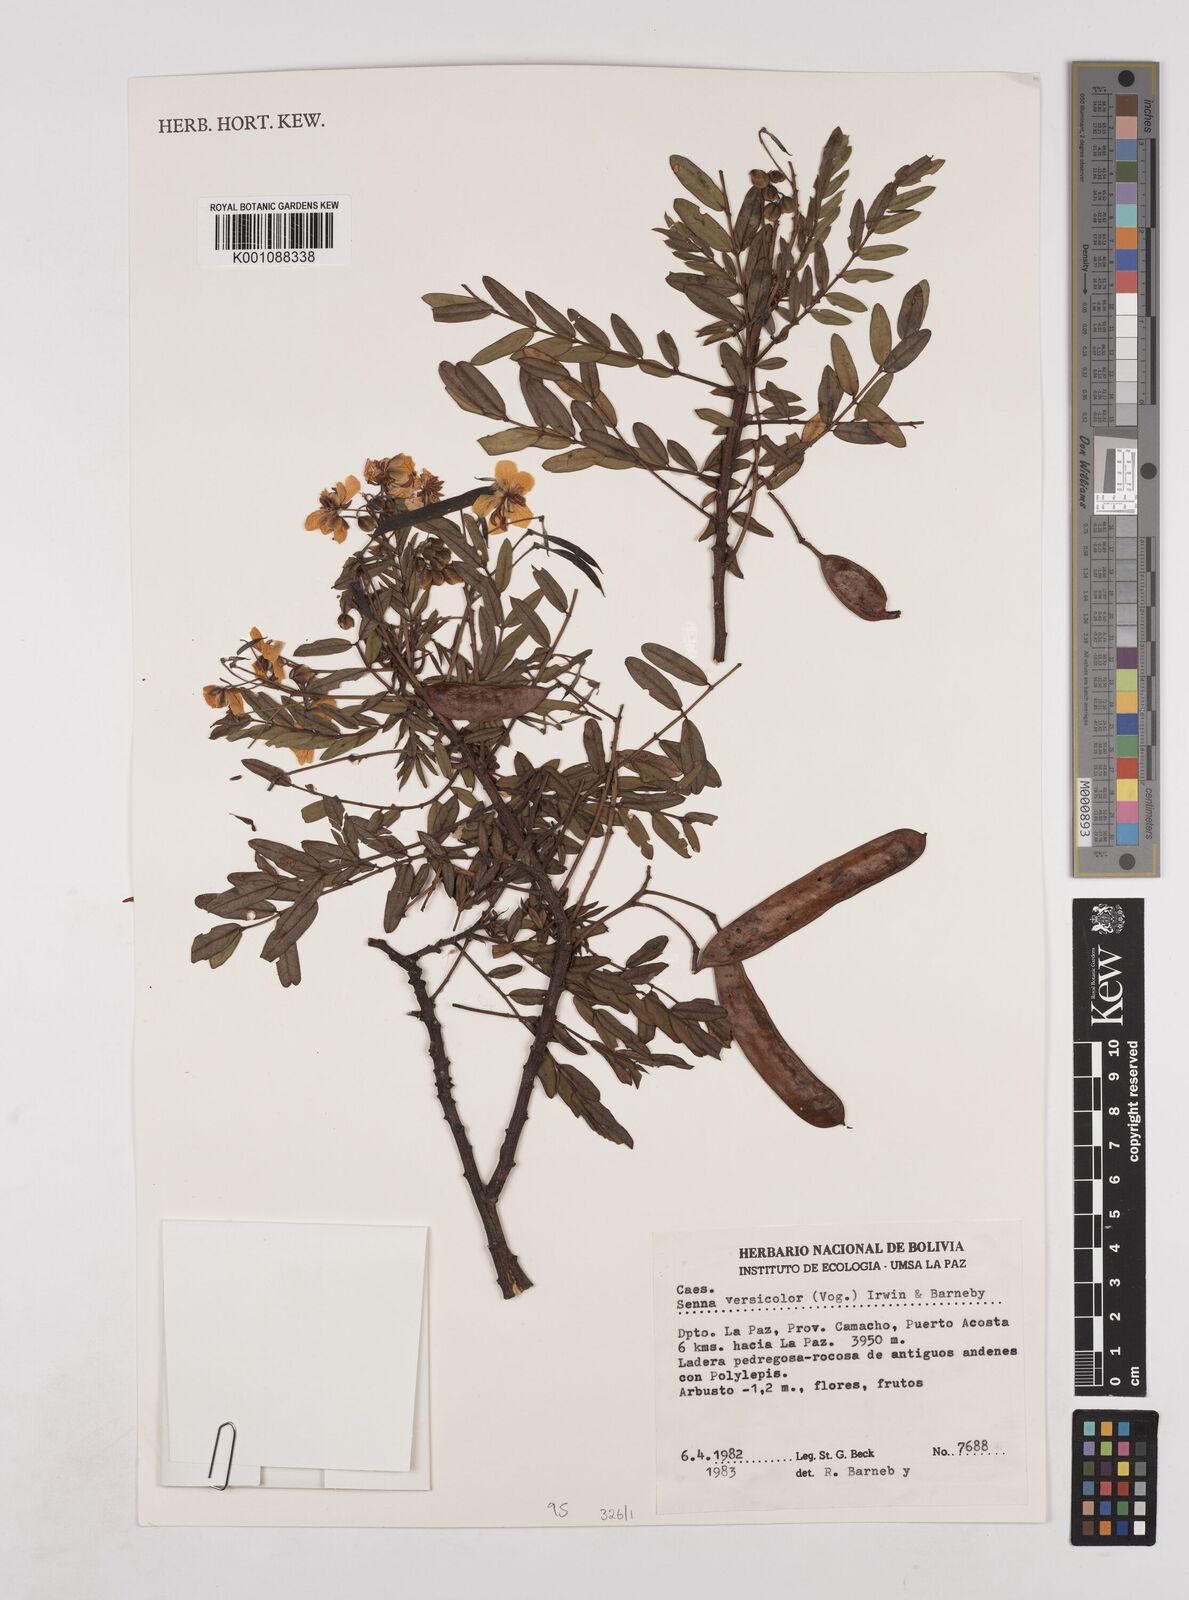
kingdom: Plantae
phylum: Tracheophyta
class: Magnoliopsida
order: Fabales
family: Fabaceae
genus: Senna
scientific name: Senna versicolor
